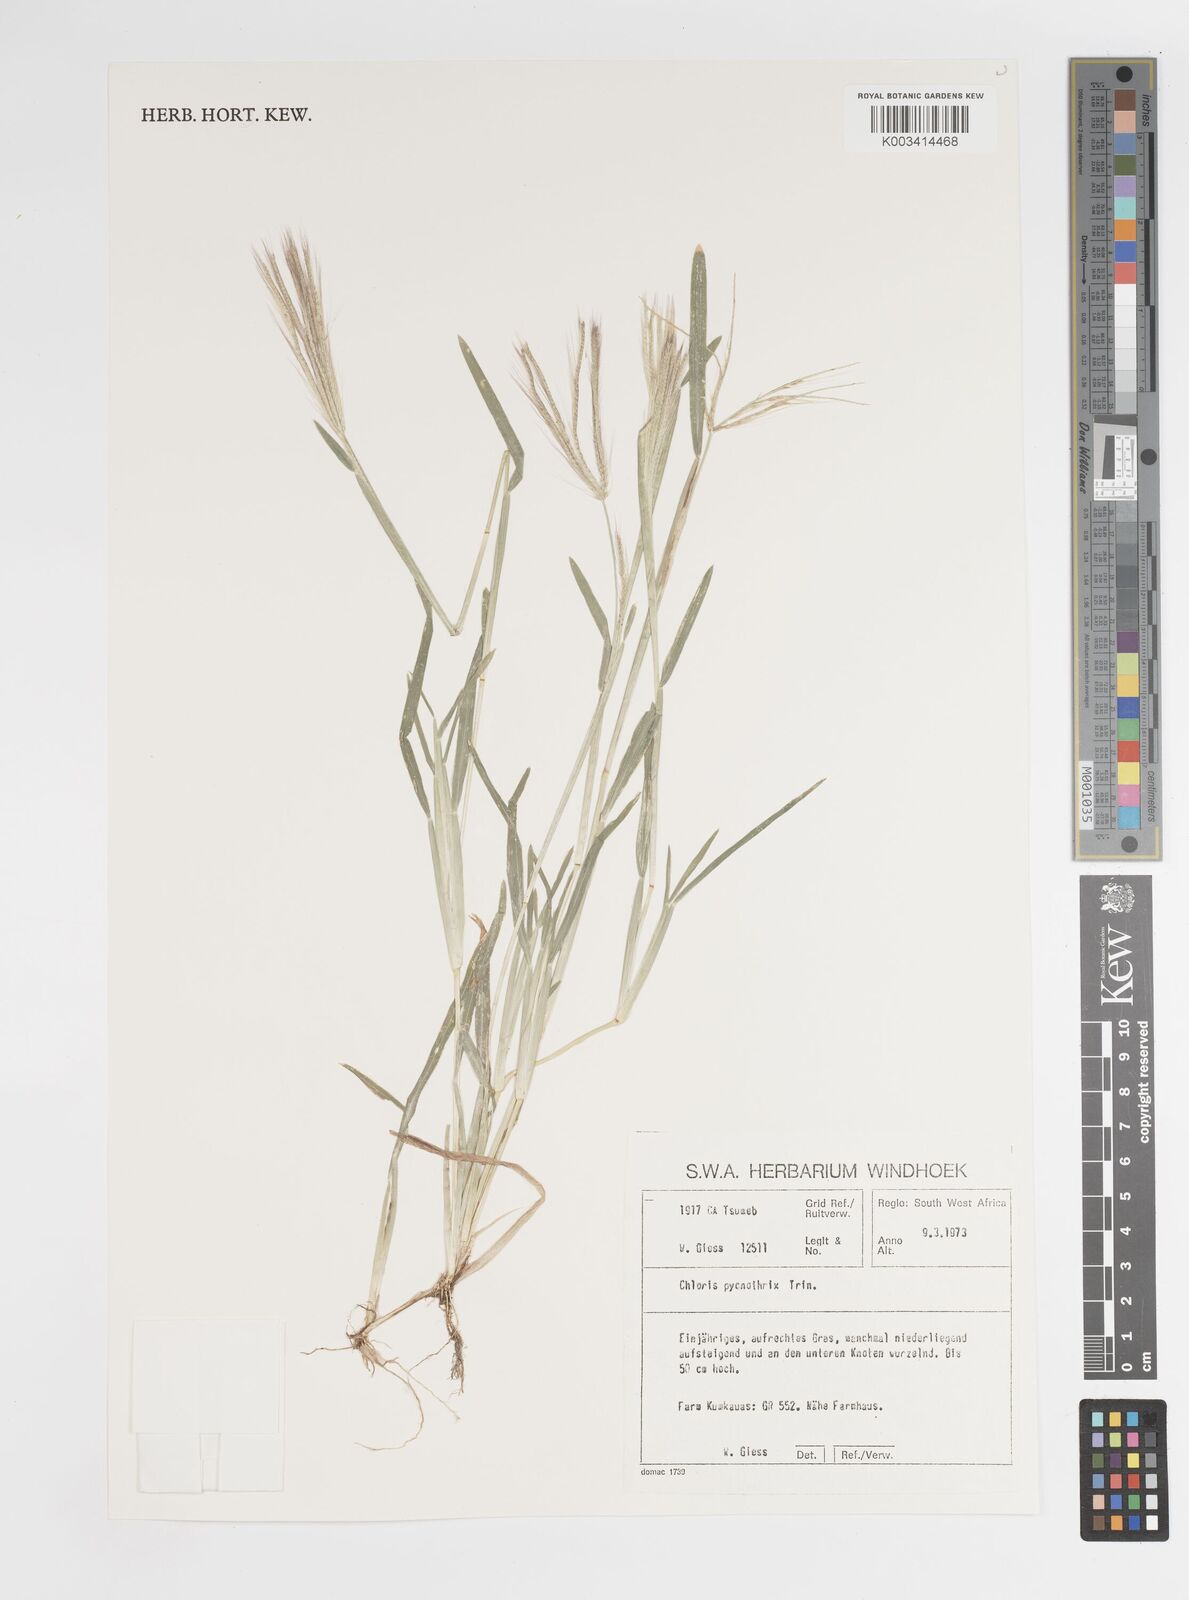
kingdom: Plantae
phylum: Tracheophyta
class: Liliopsida
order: Poales
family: Poaceae
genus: Chloris
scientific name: Chloris pycnothrix
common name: Spiderweb chloris
